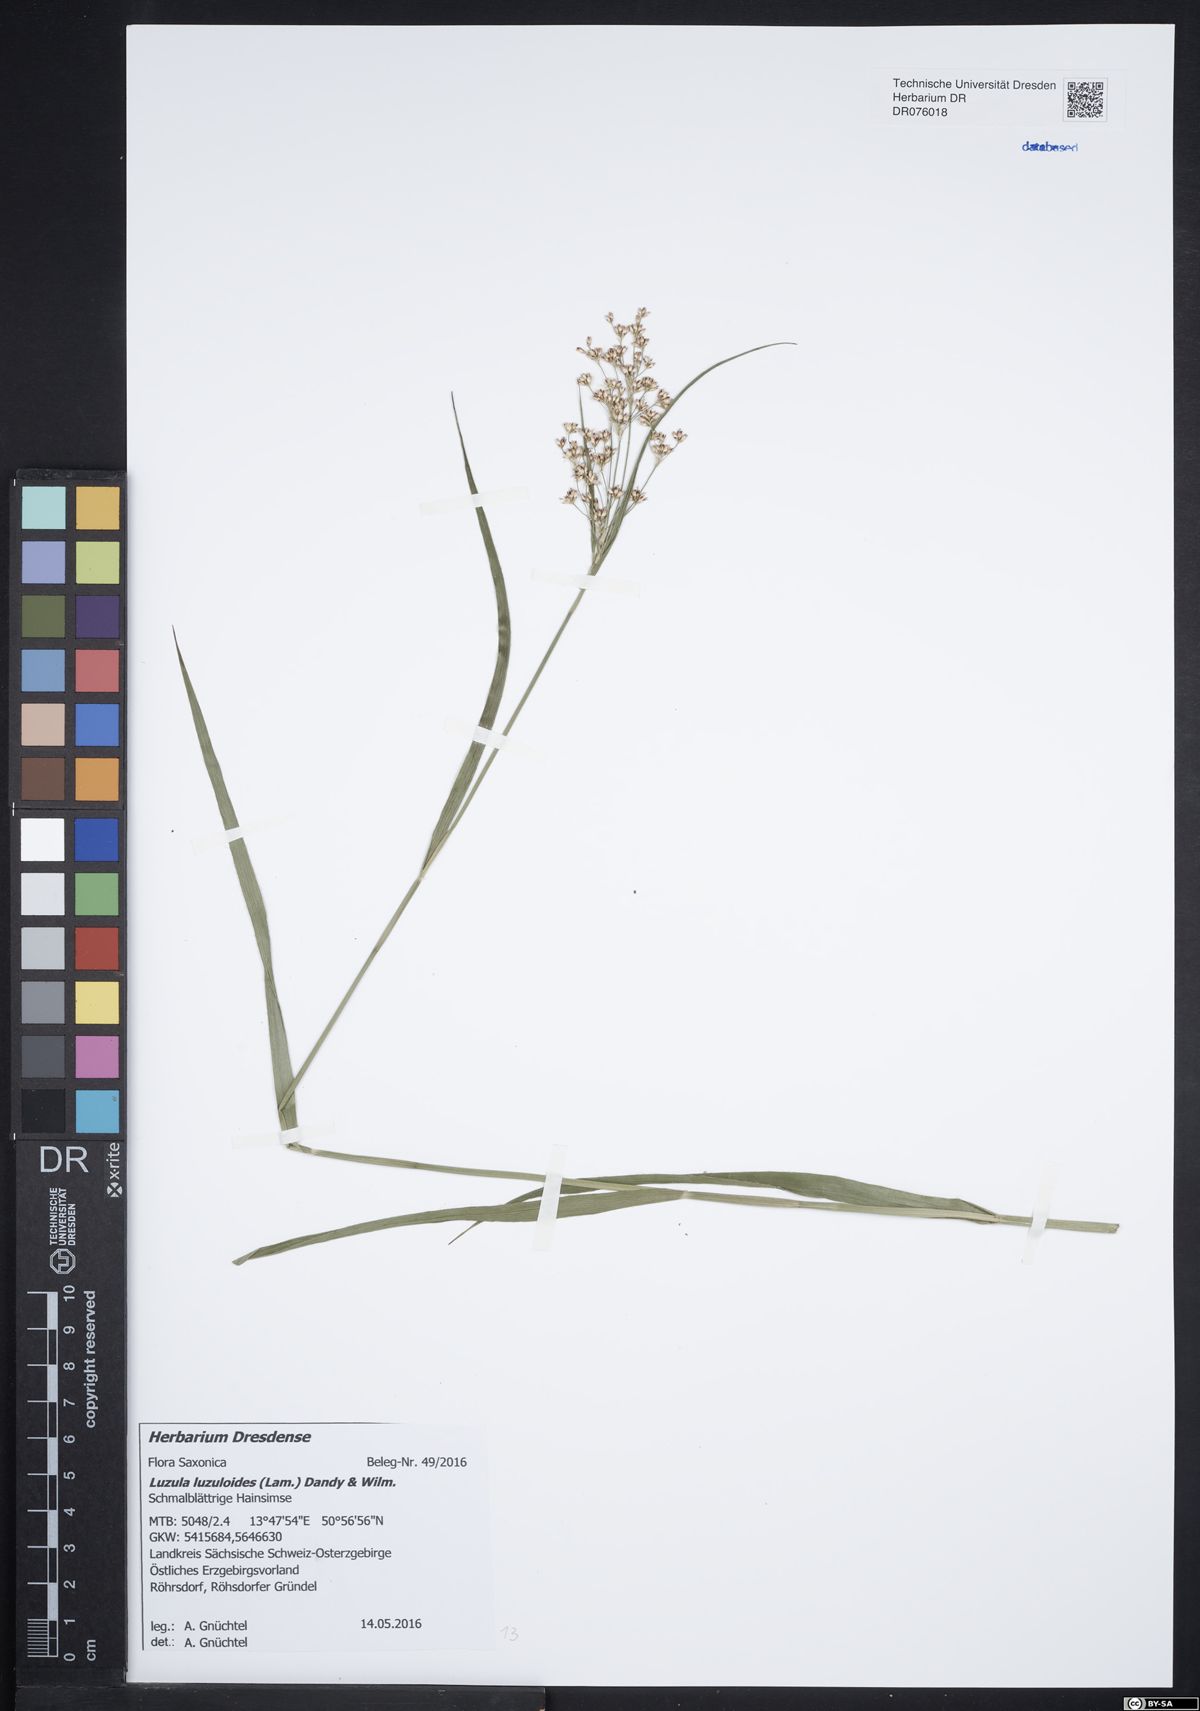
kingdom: Plantae
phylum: Tracheophyta
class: Liliopsida
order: Poales
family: Juncaceae
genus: Luzula
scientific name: Luzula luzuloides
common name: White wood-rush
